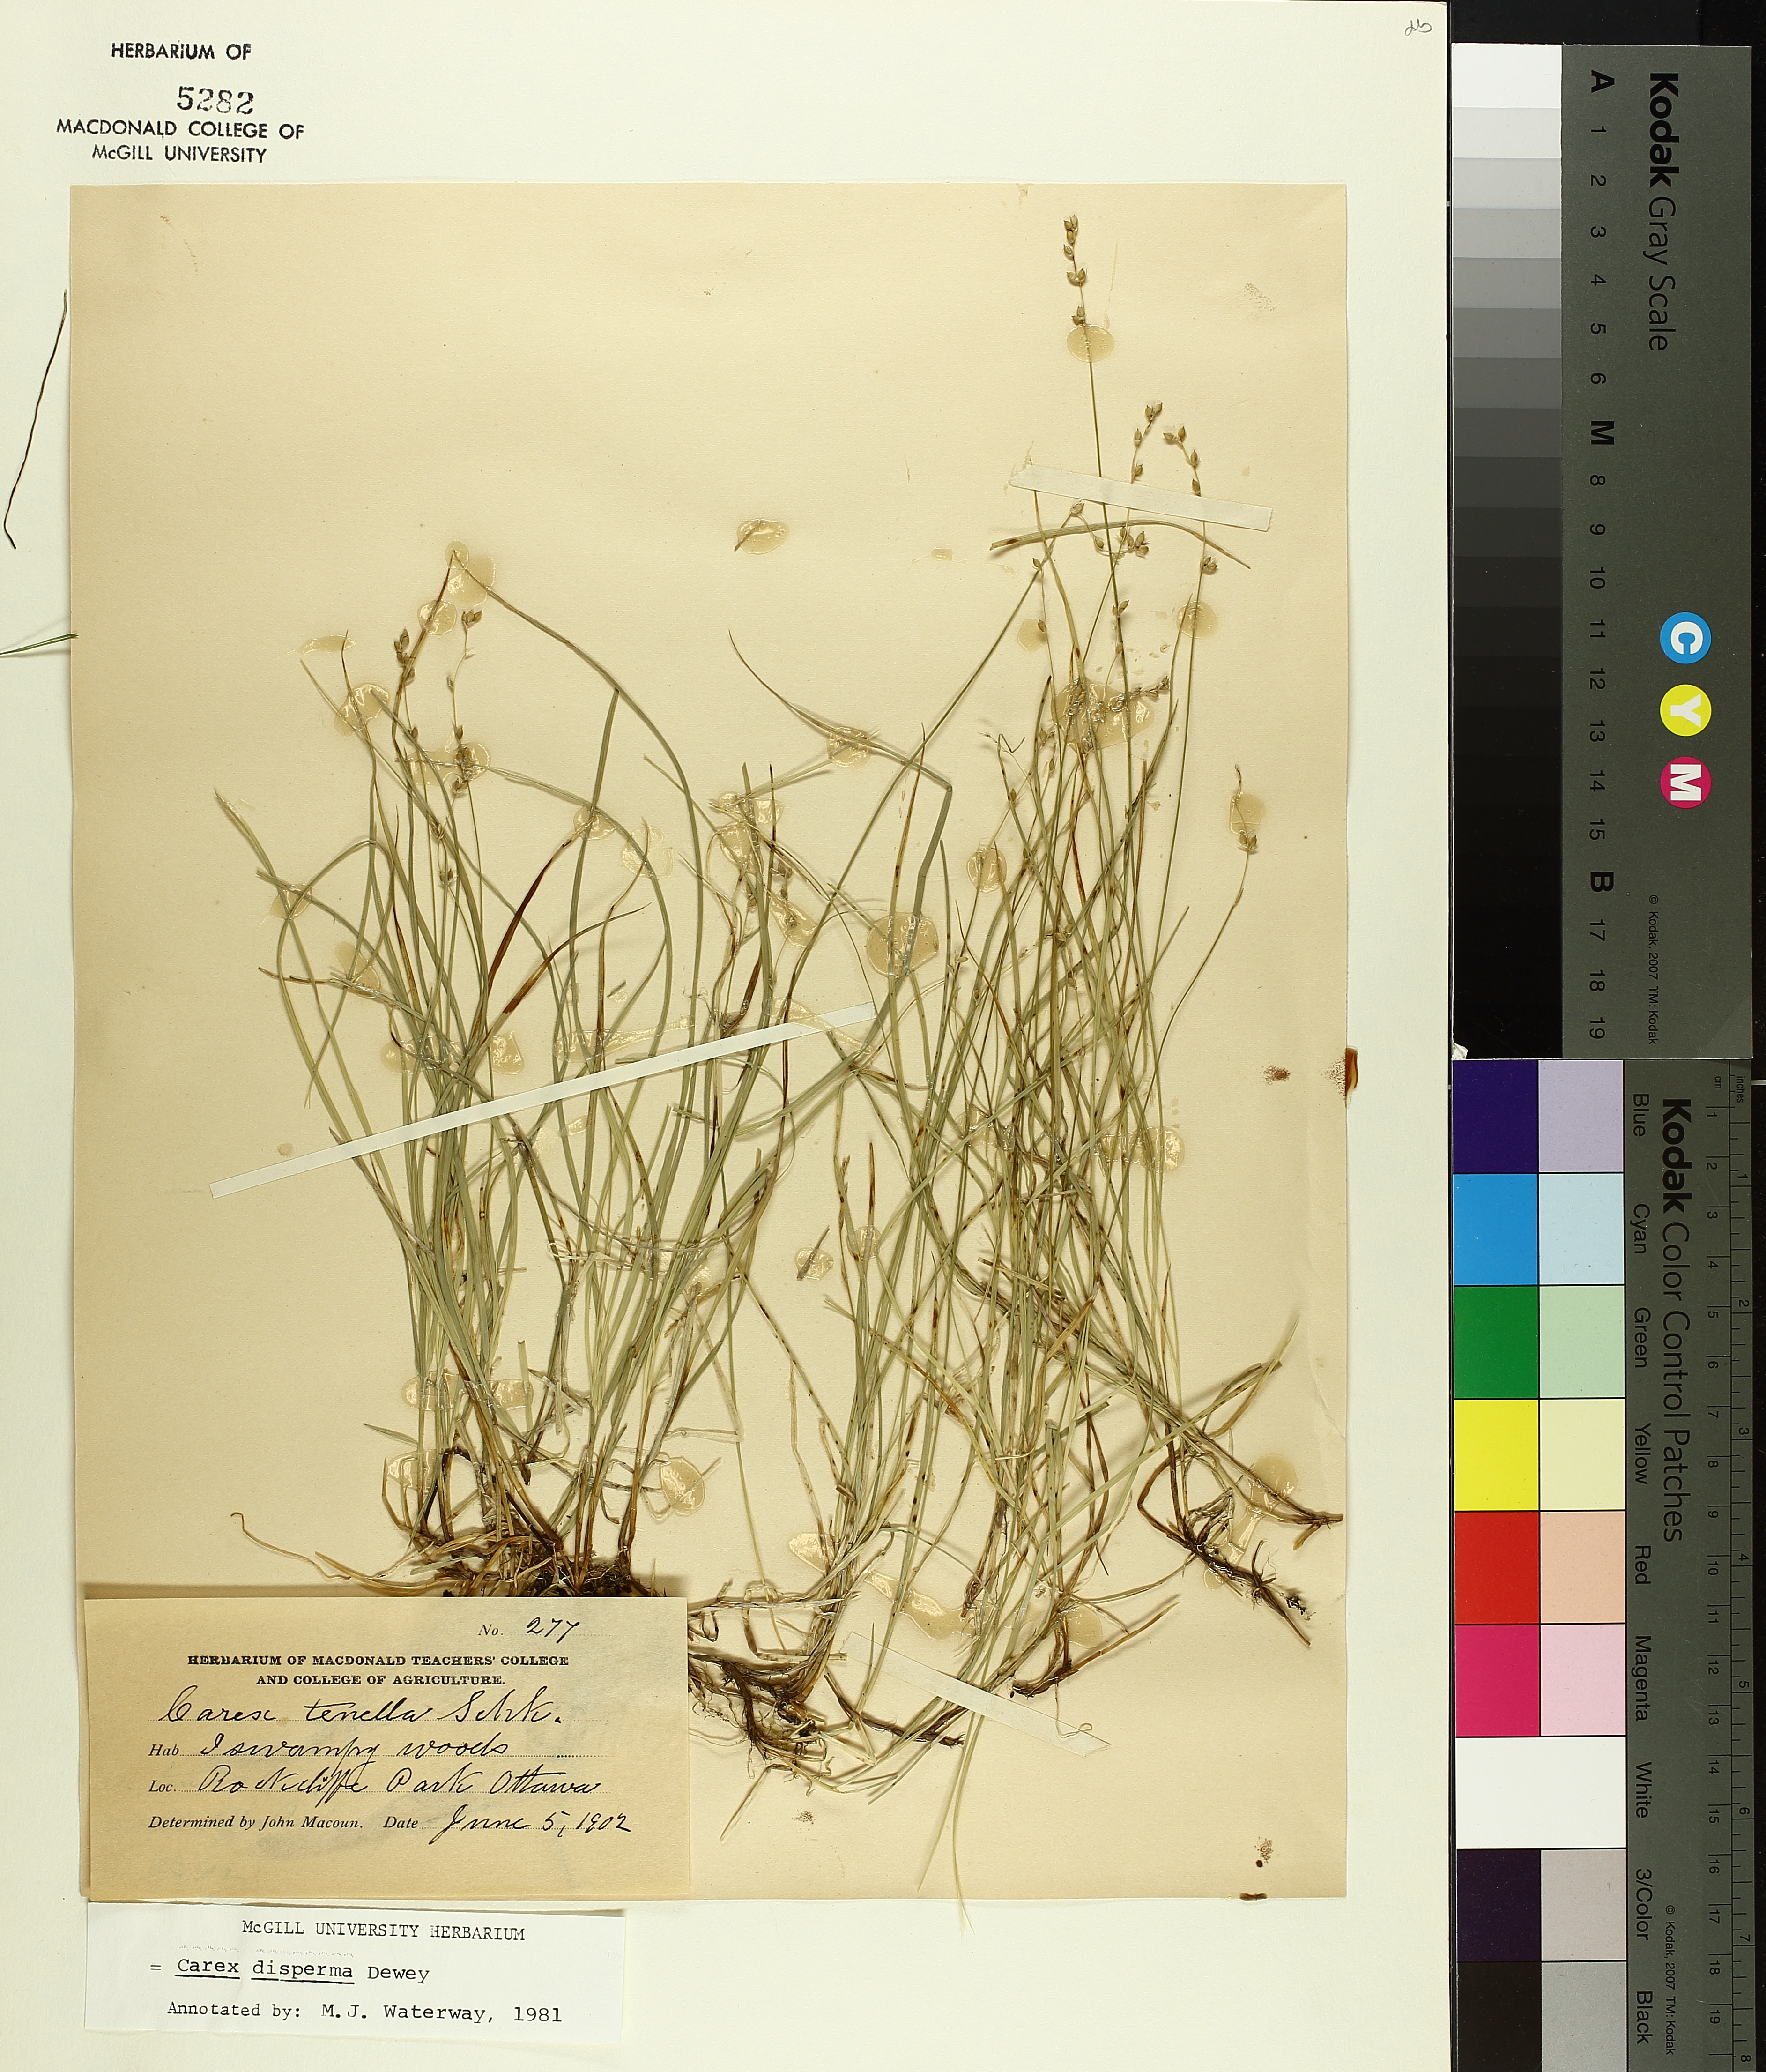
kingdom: Plantae
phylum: Tracheophyta
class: Liliopsida
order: Poales
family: Cyperaceae
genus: Carex
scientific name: Carex disperma
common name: Short-leaved sedge
